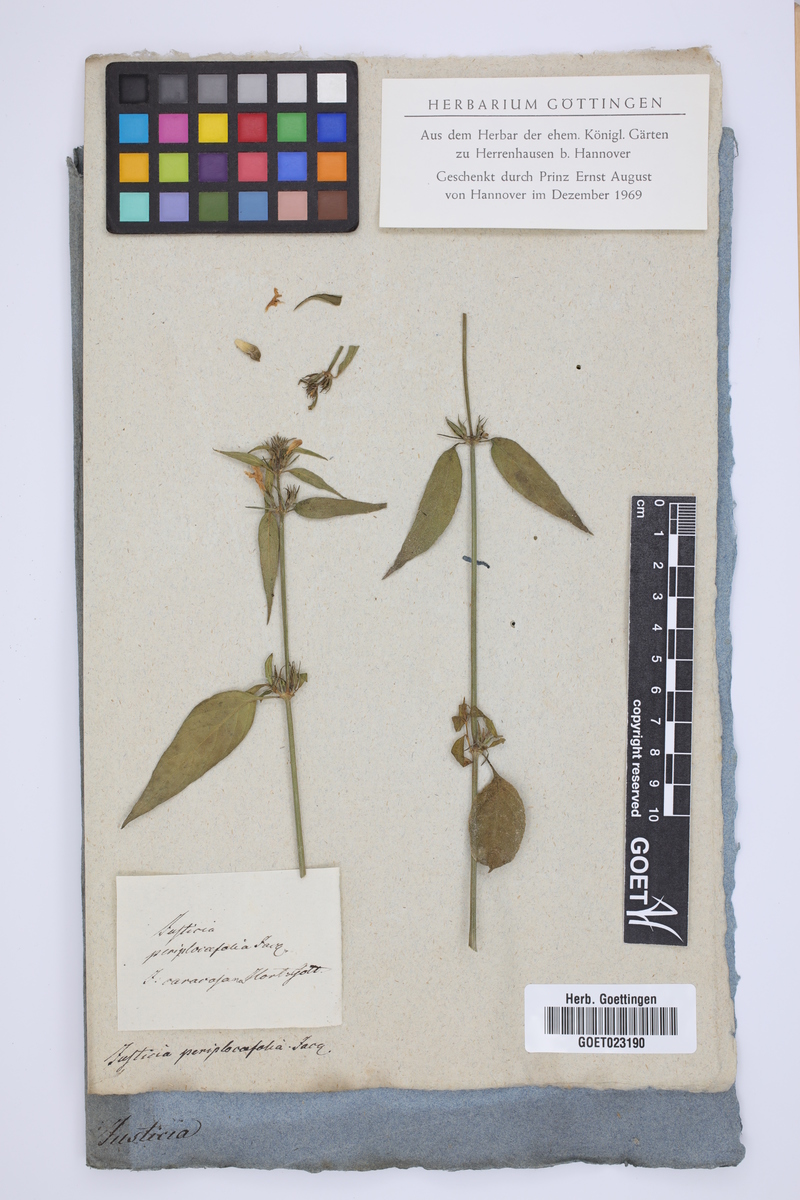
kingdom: Plantae
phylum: Tracheophyta
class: Magnoliopsida
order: Lamiales
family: Acanthaceae
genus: Justicia
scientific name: Justicia periplocifolia
